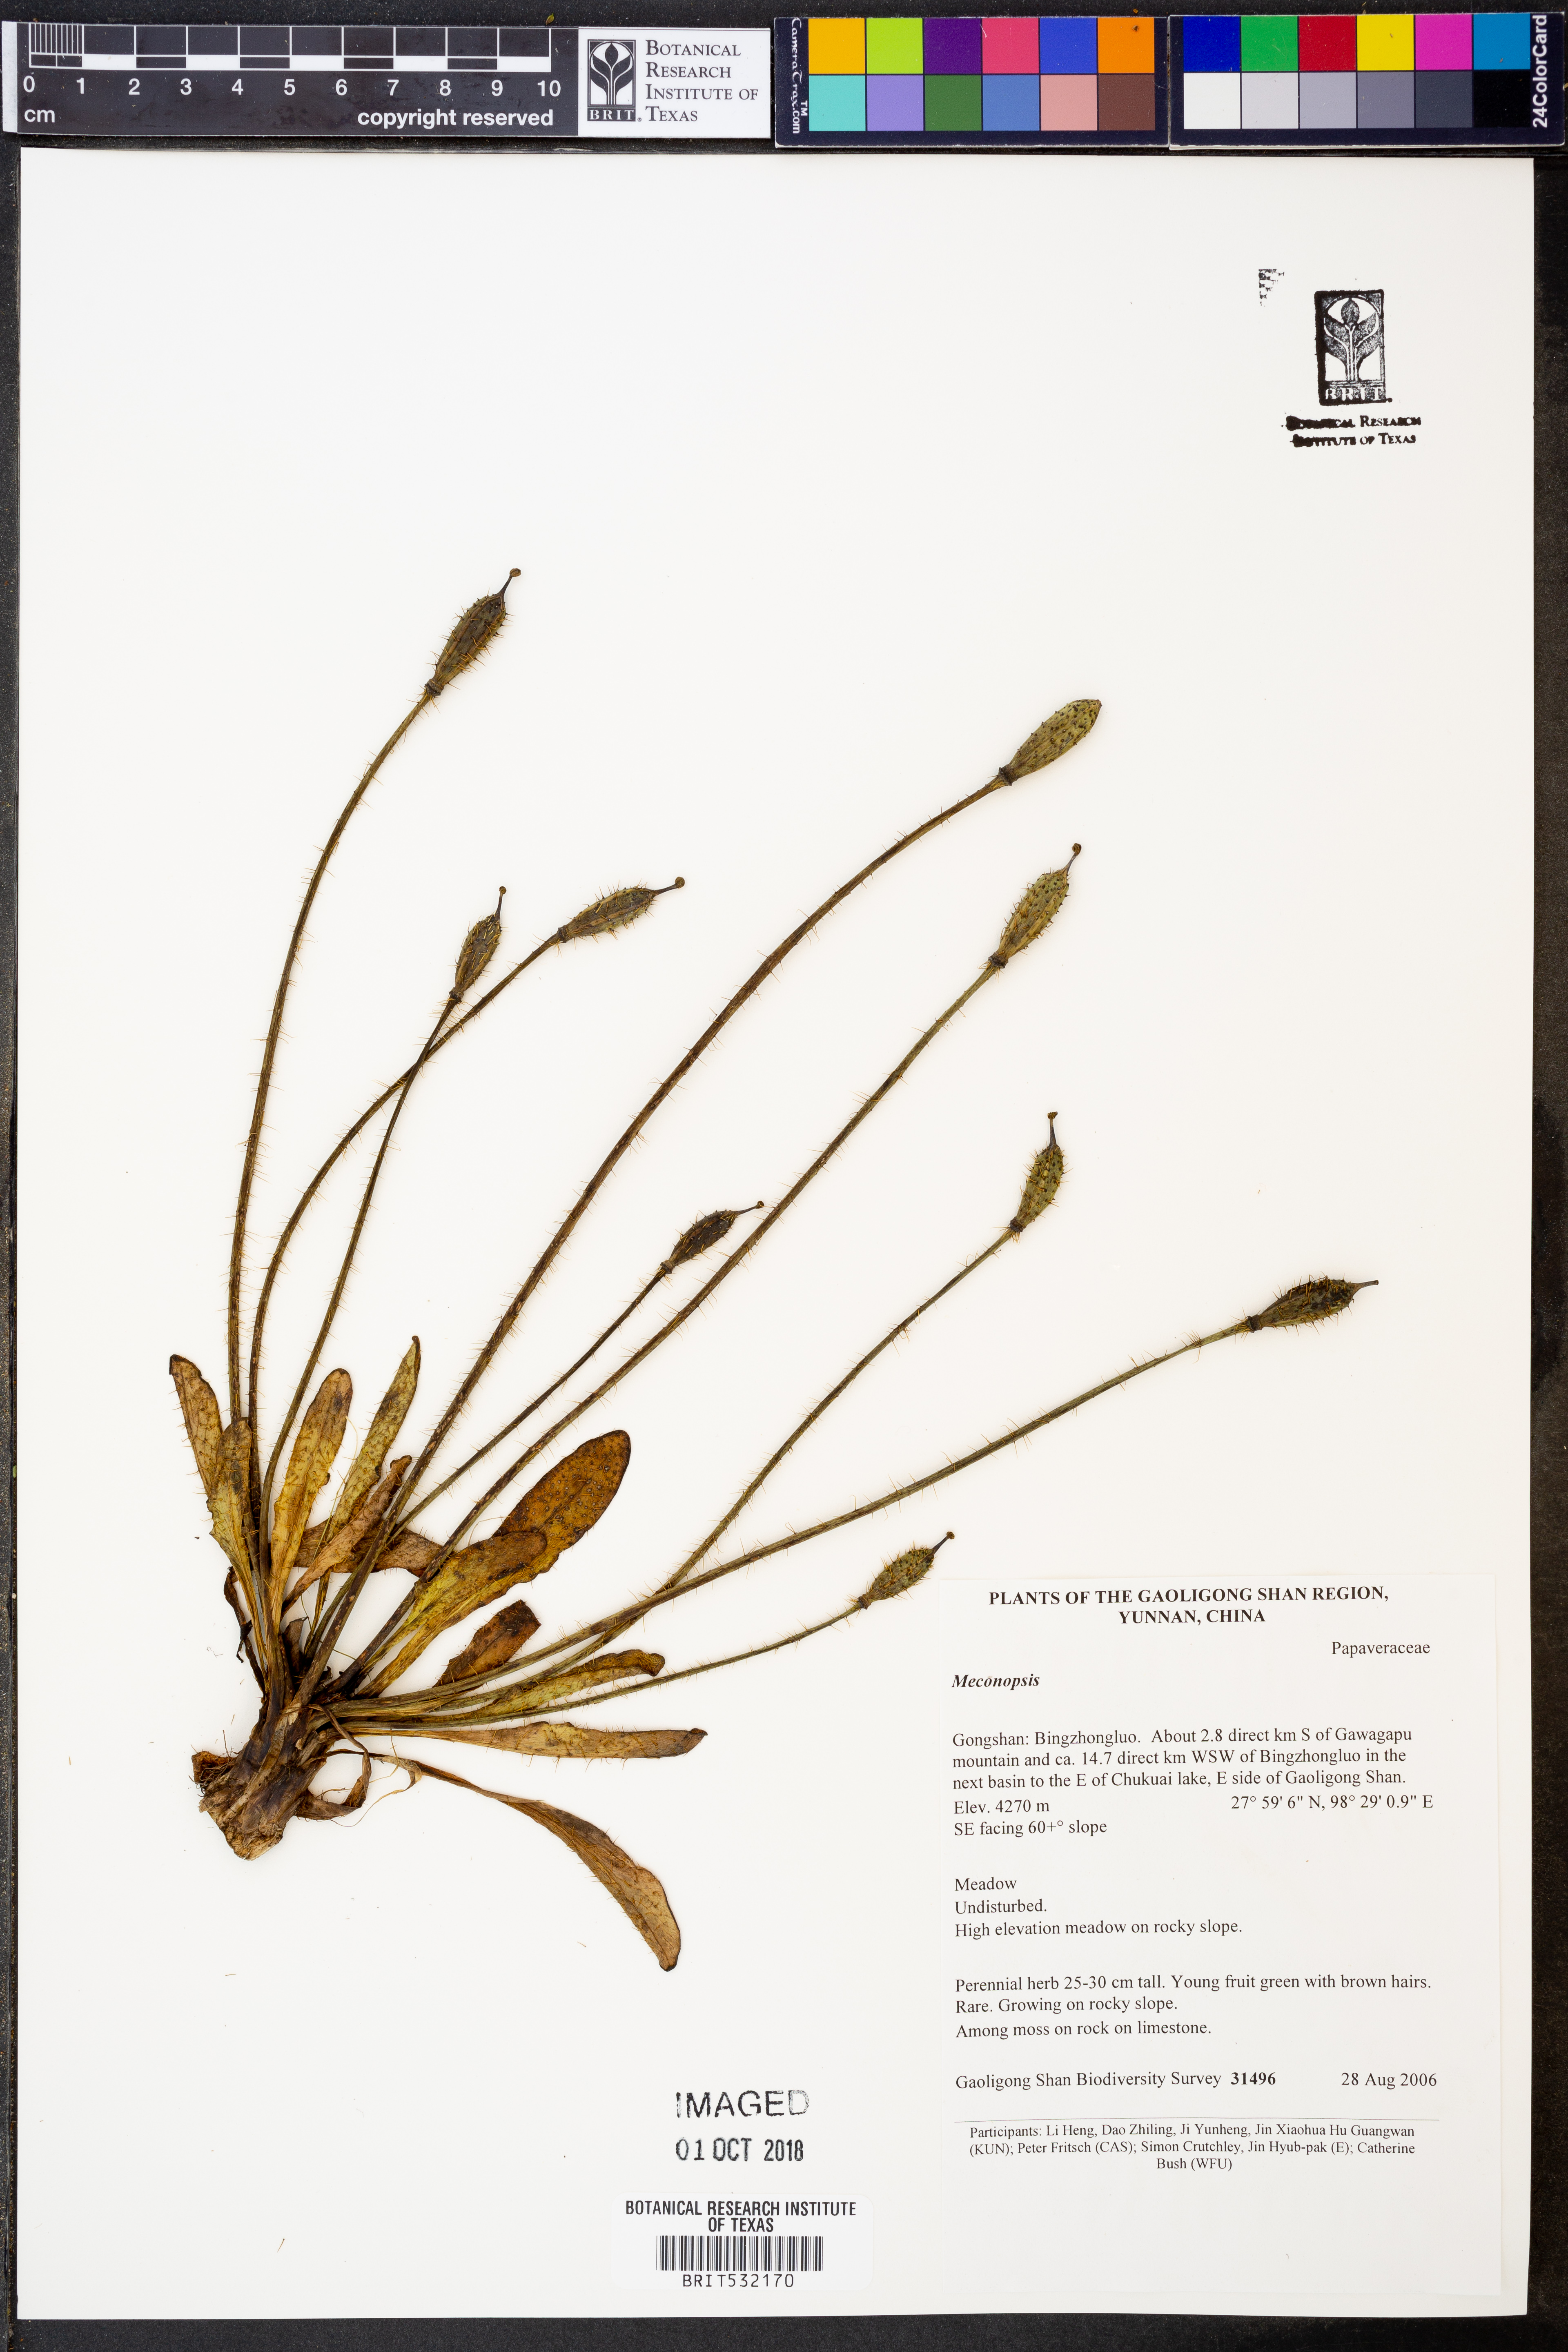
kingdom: Plantae
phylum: Tracheophyta
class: Magnoliopsida
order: Ranunculales
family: Papaveraceae
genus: Meconopsis
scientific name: Meconopsis
